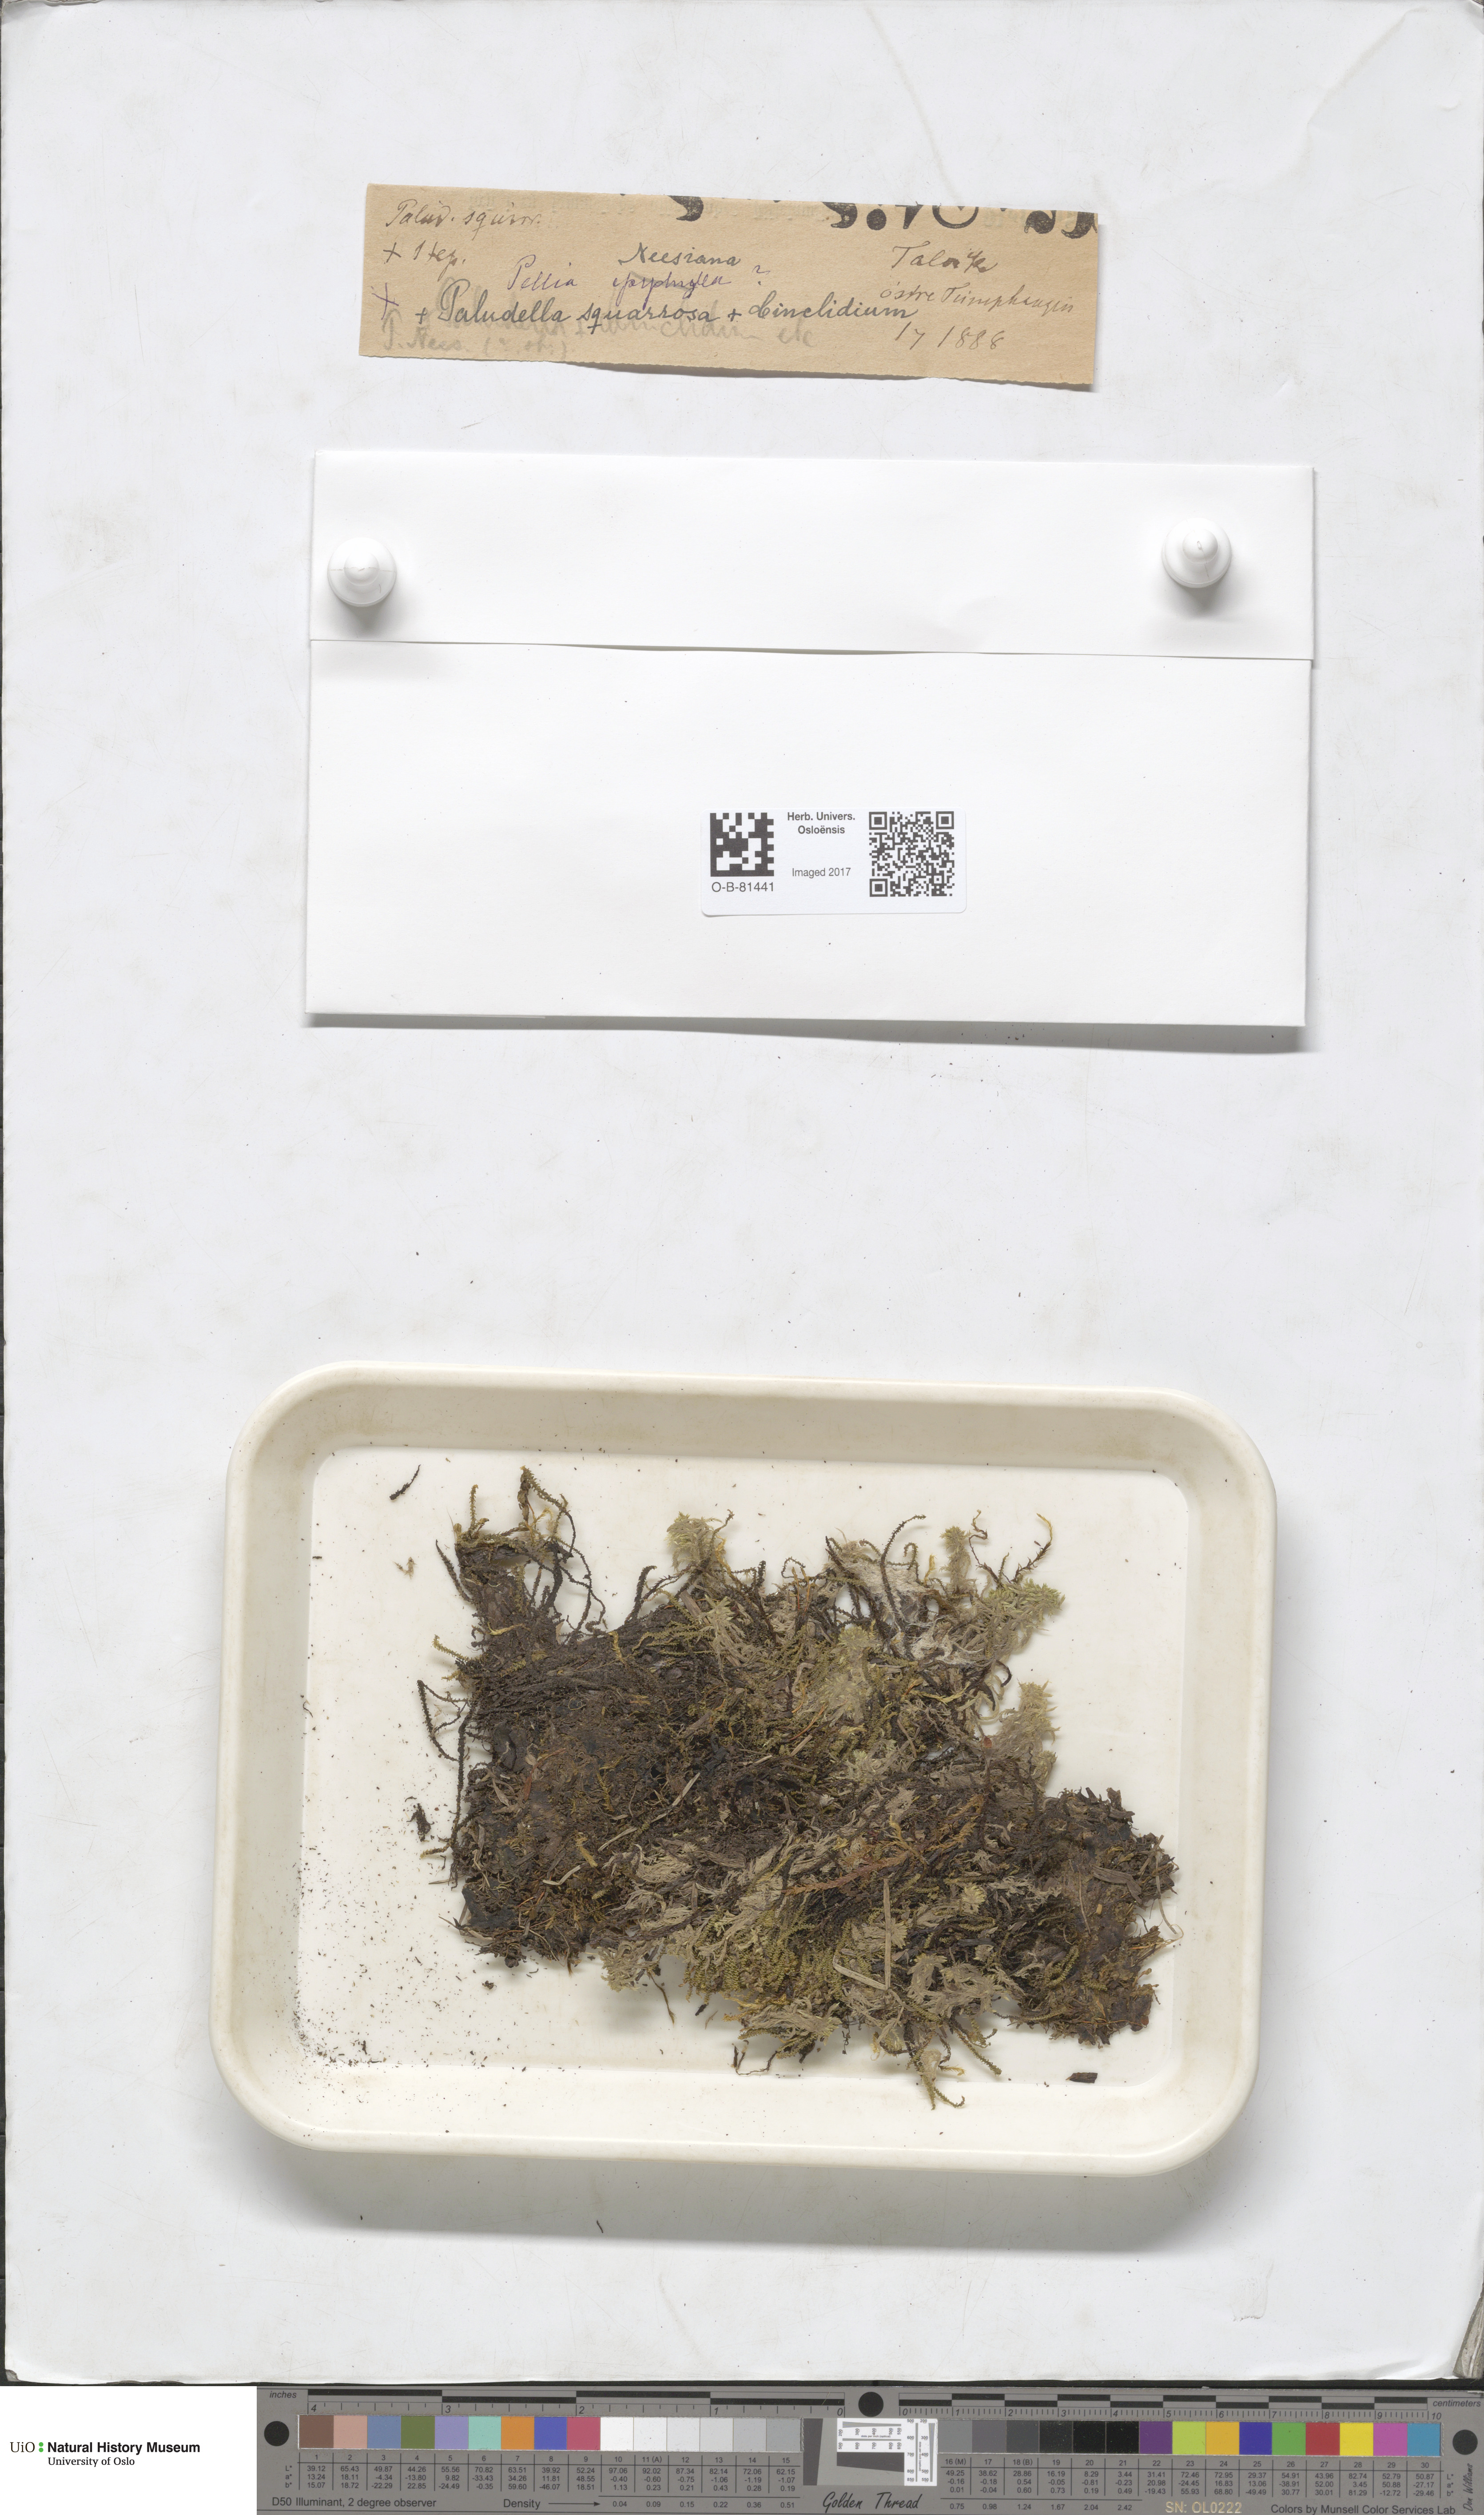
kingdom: Plantae
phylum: Marchantiophyta
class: Jungermanniopsida
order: Pelliales
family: Pelliaceae
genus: Pellia
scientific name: Pellia neesiana
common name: Nees  pellia
